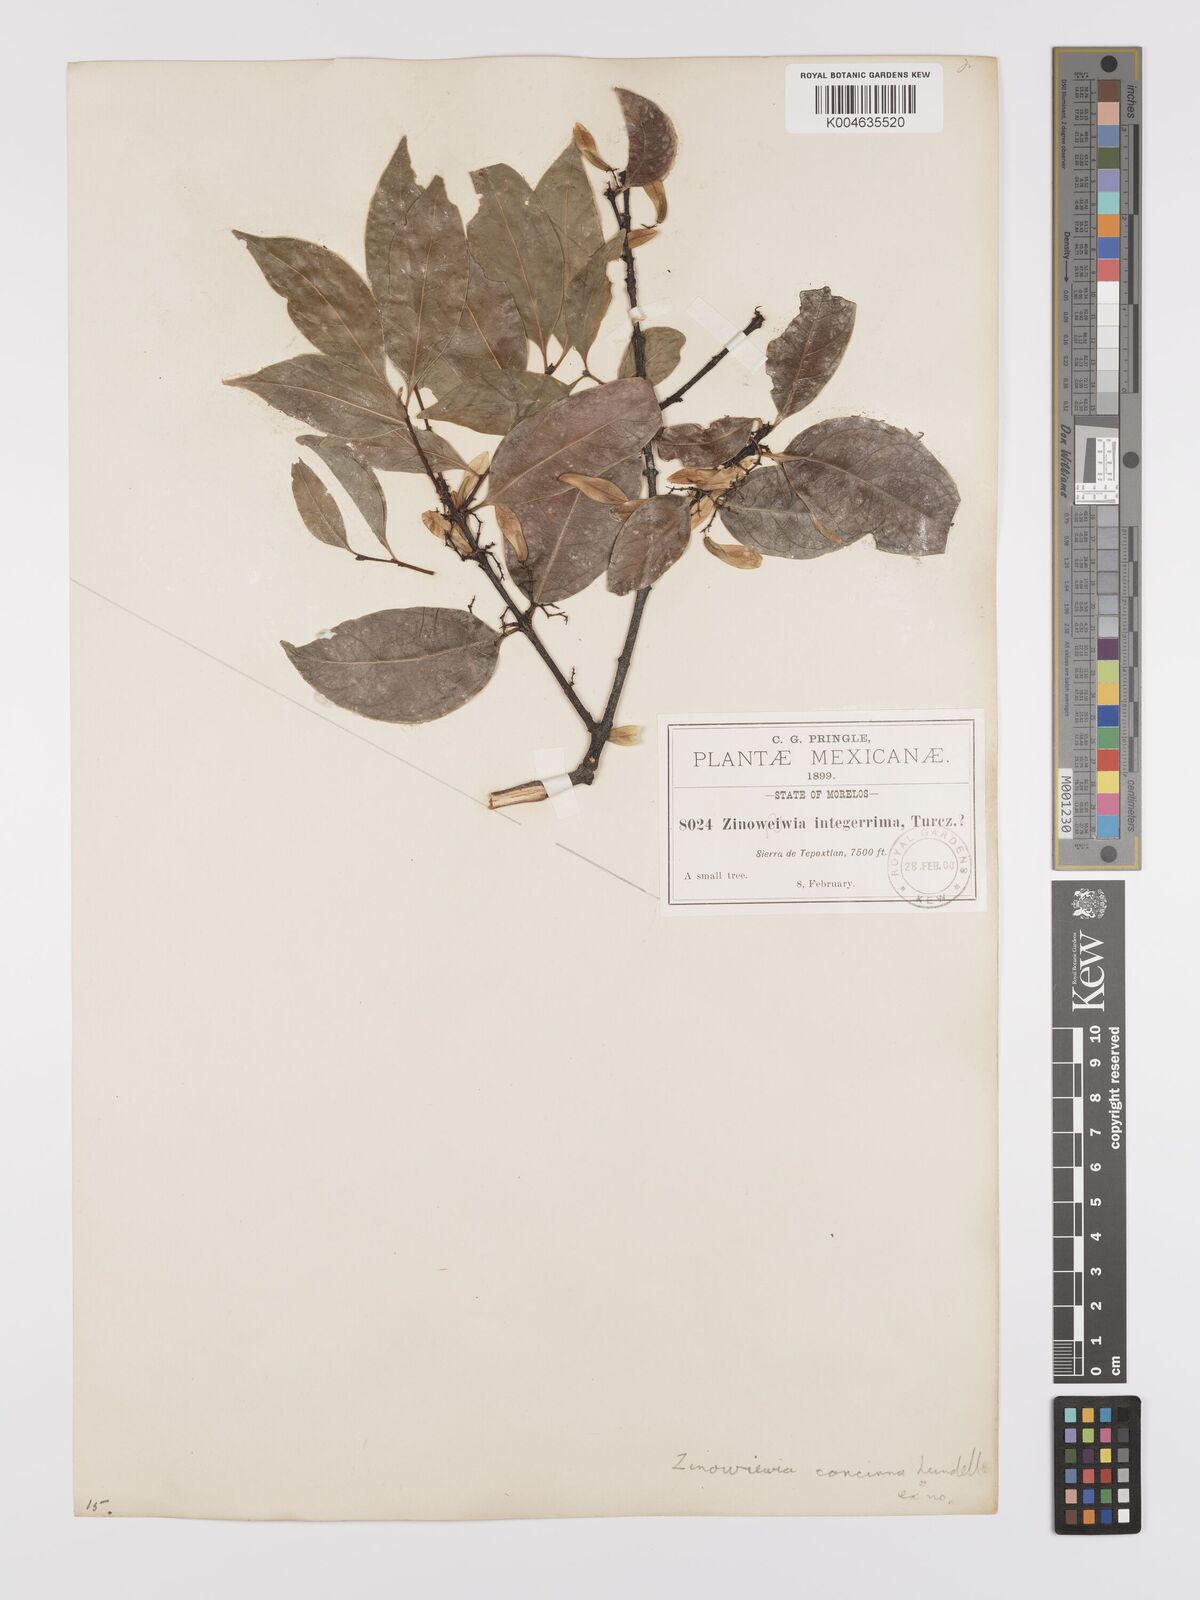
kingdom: Plantae
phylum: Tracheophyta
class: Magnoliopsida
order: Celastrales
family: Celastraceae
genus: Zinowiewia
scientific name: Zinowiewia concinna
